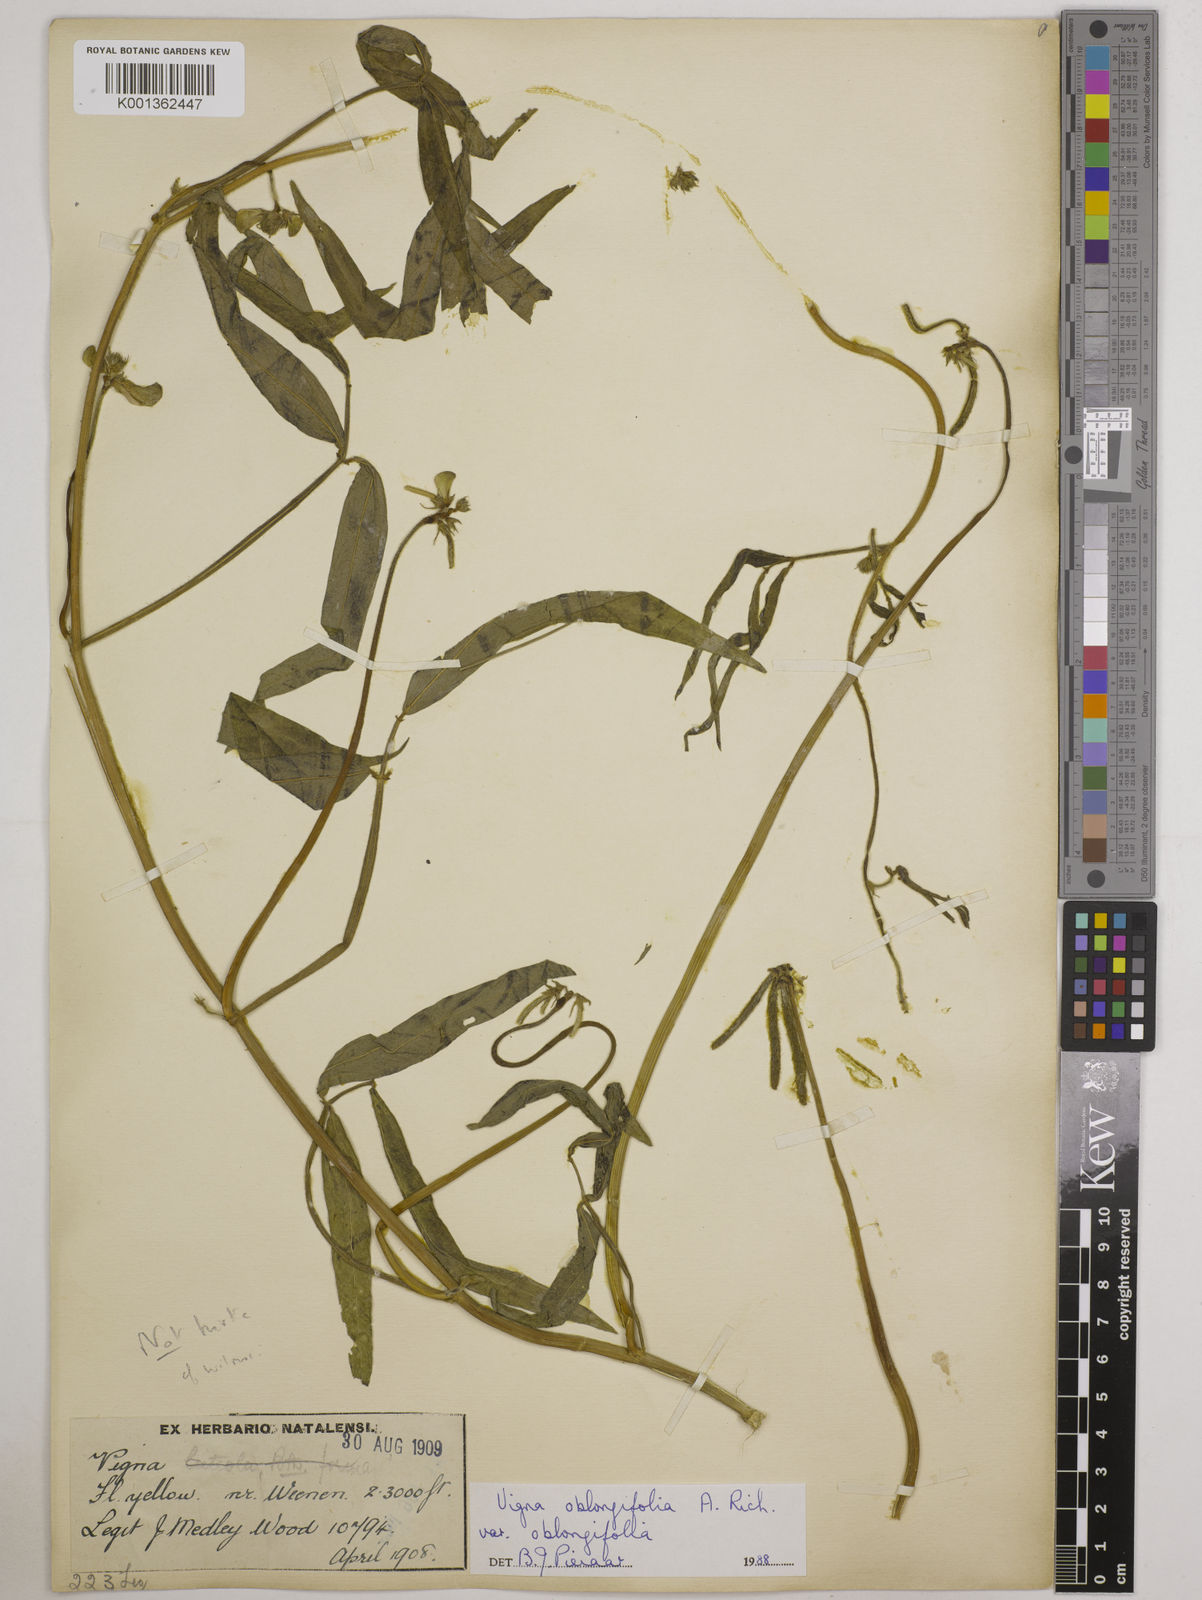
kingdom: Plantae
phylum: Tracheophyta
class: Magnoliopsida
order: Fabales
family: Fabaceae
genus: Vigna
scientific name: Vigna oblongifolia
